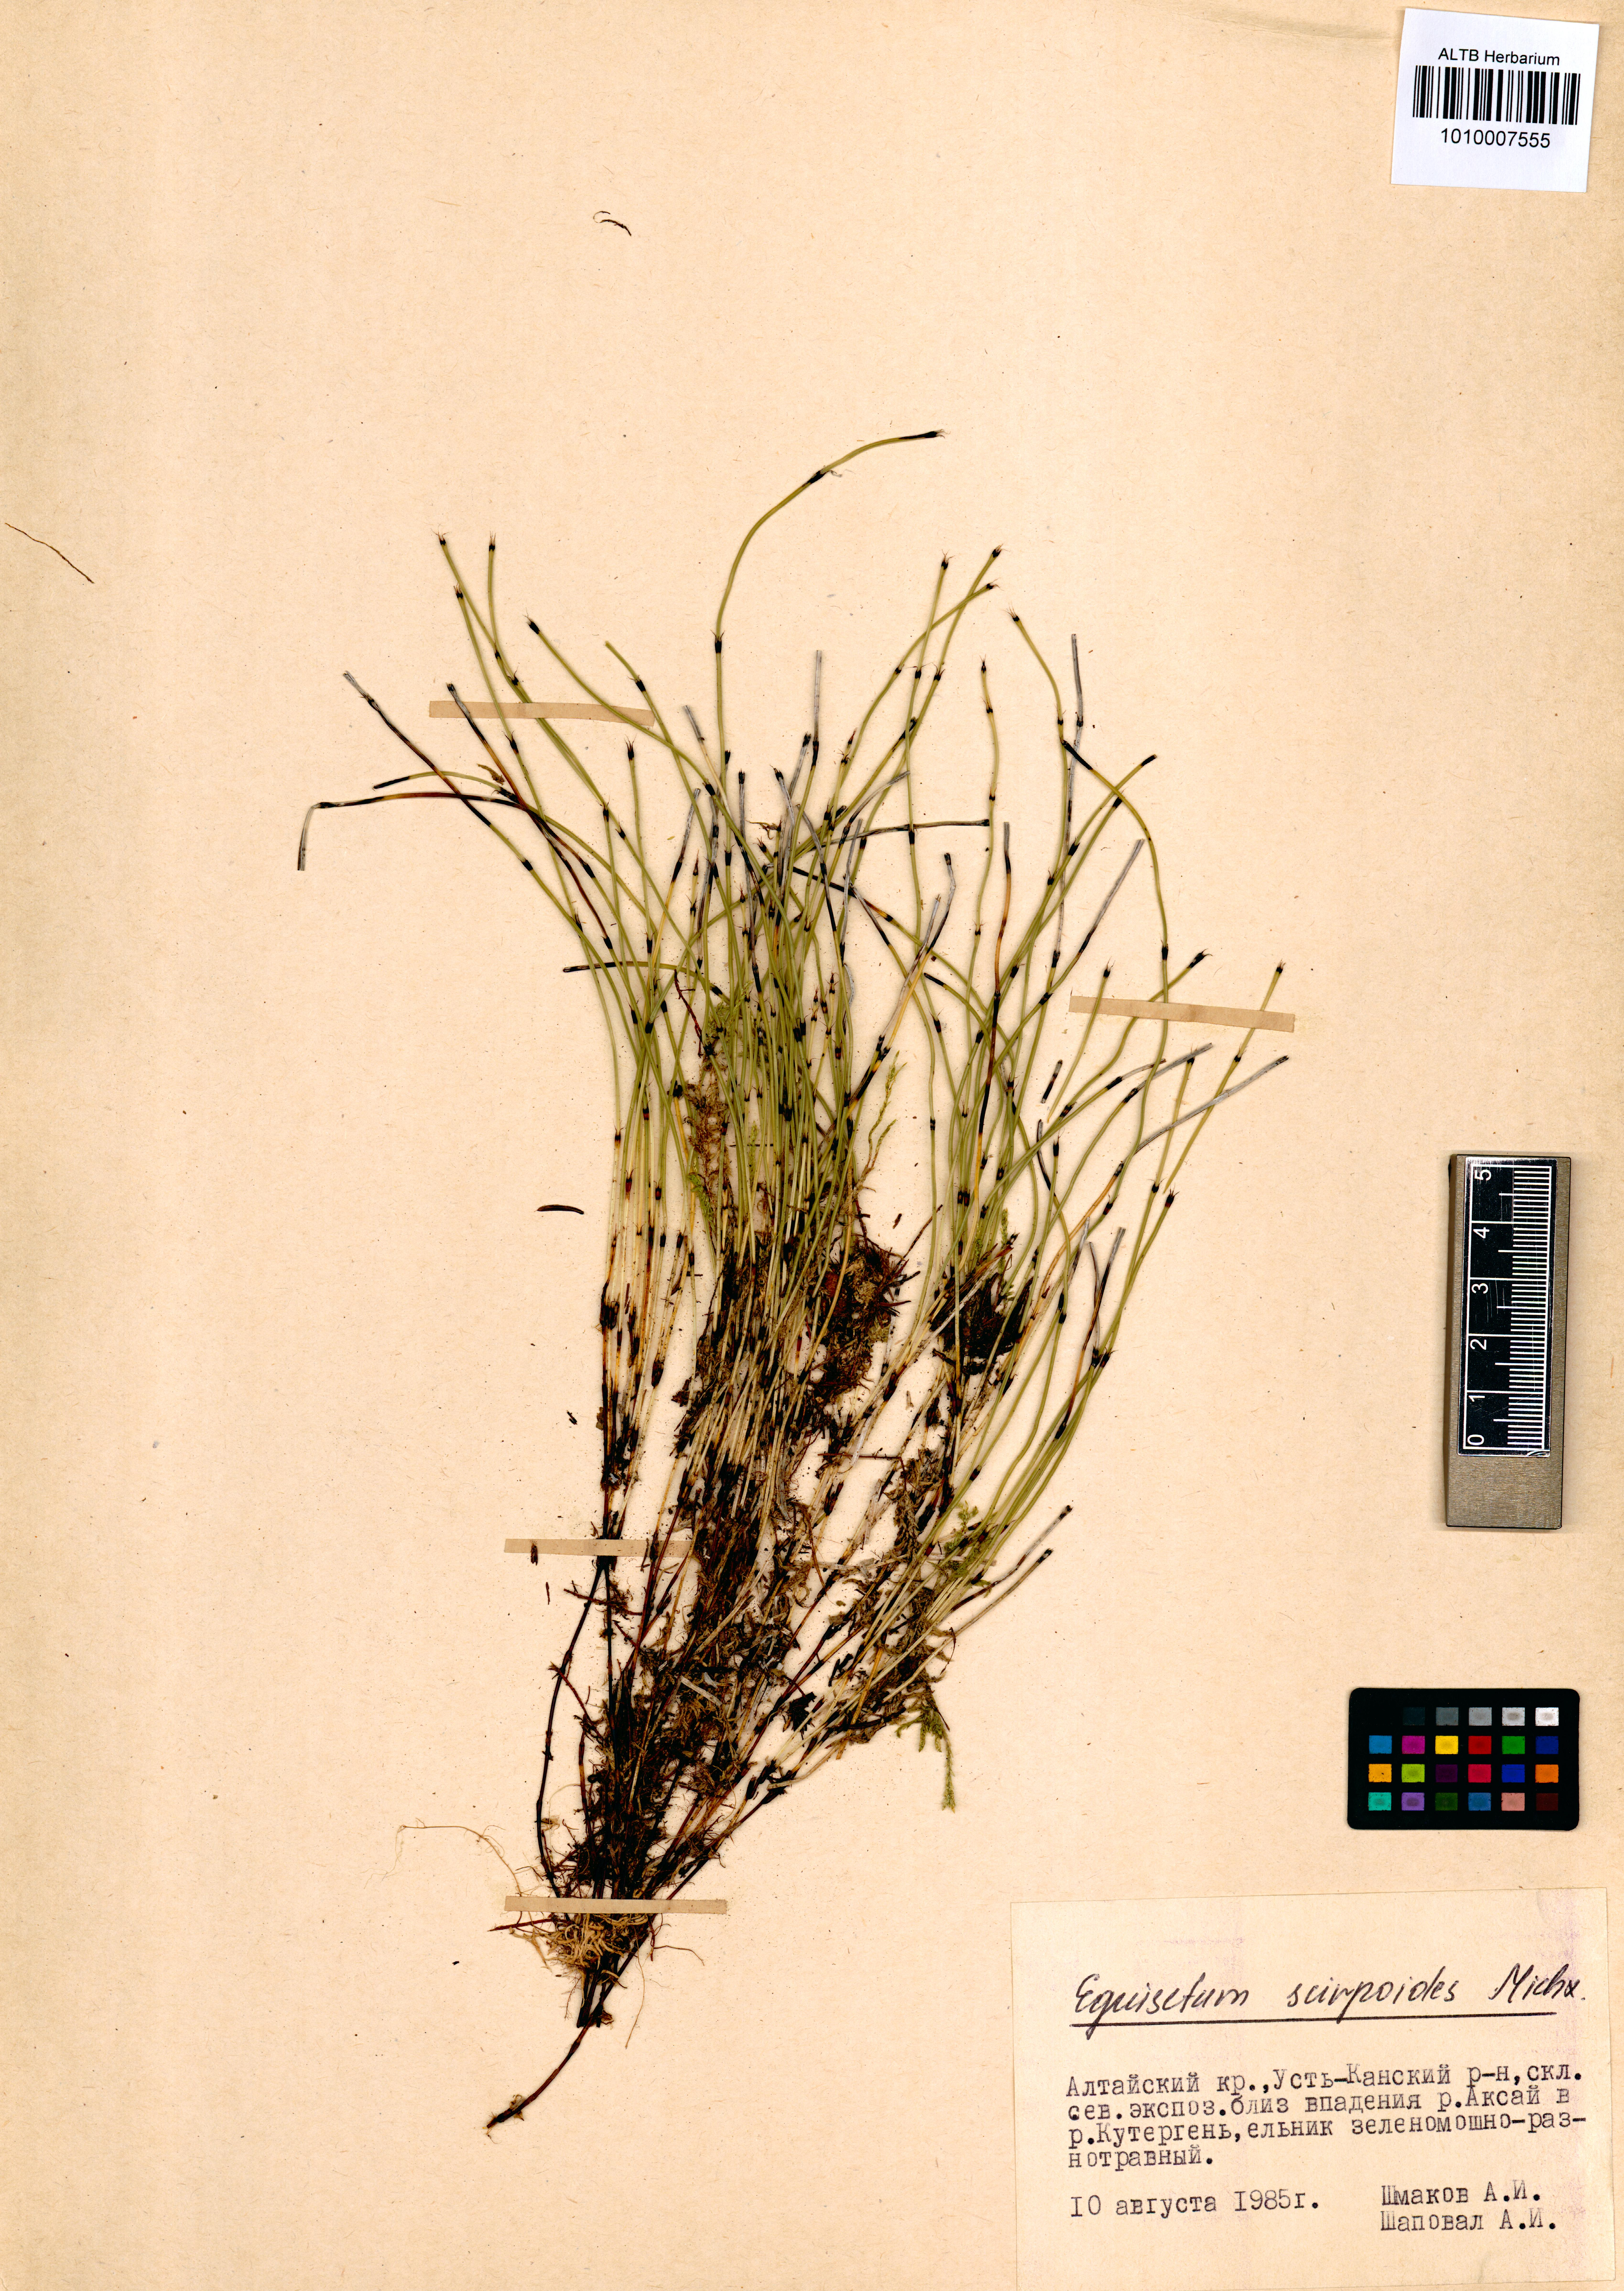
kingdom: Plantae
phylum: Tracheophyta
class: Polypodiopsida
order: Equisetales
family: Equisetaceae
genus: Equisetum
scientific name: Equisetum scirpoides
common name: Delicate horsetail
